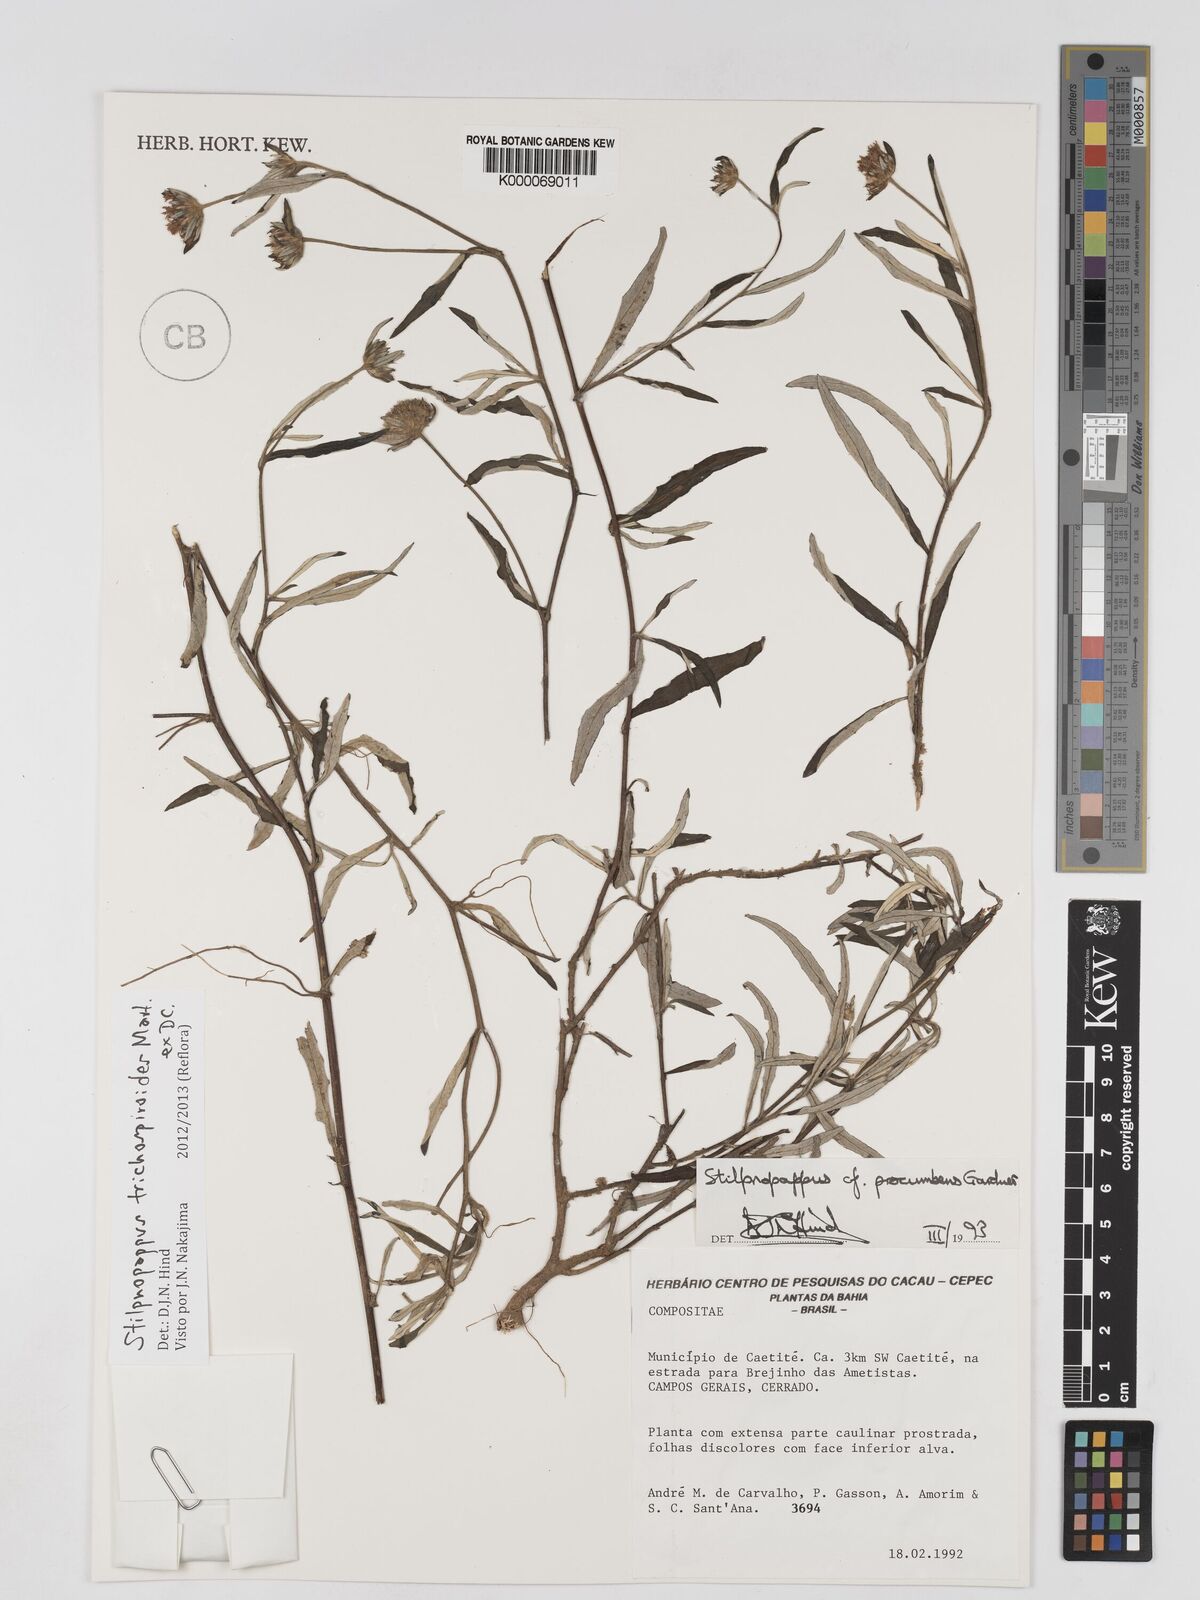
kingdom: Plantae
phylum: Tracheophyta
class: Magnoliopsida
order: Asterales
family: Asteraceae
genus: Stilpnopappus
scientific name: Stilpnopappus trichospiroides
